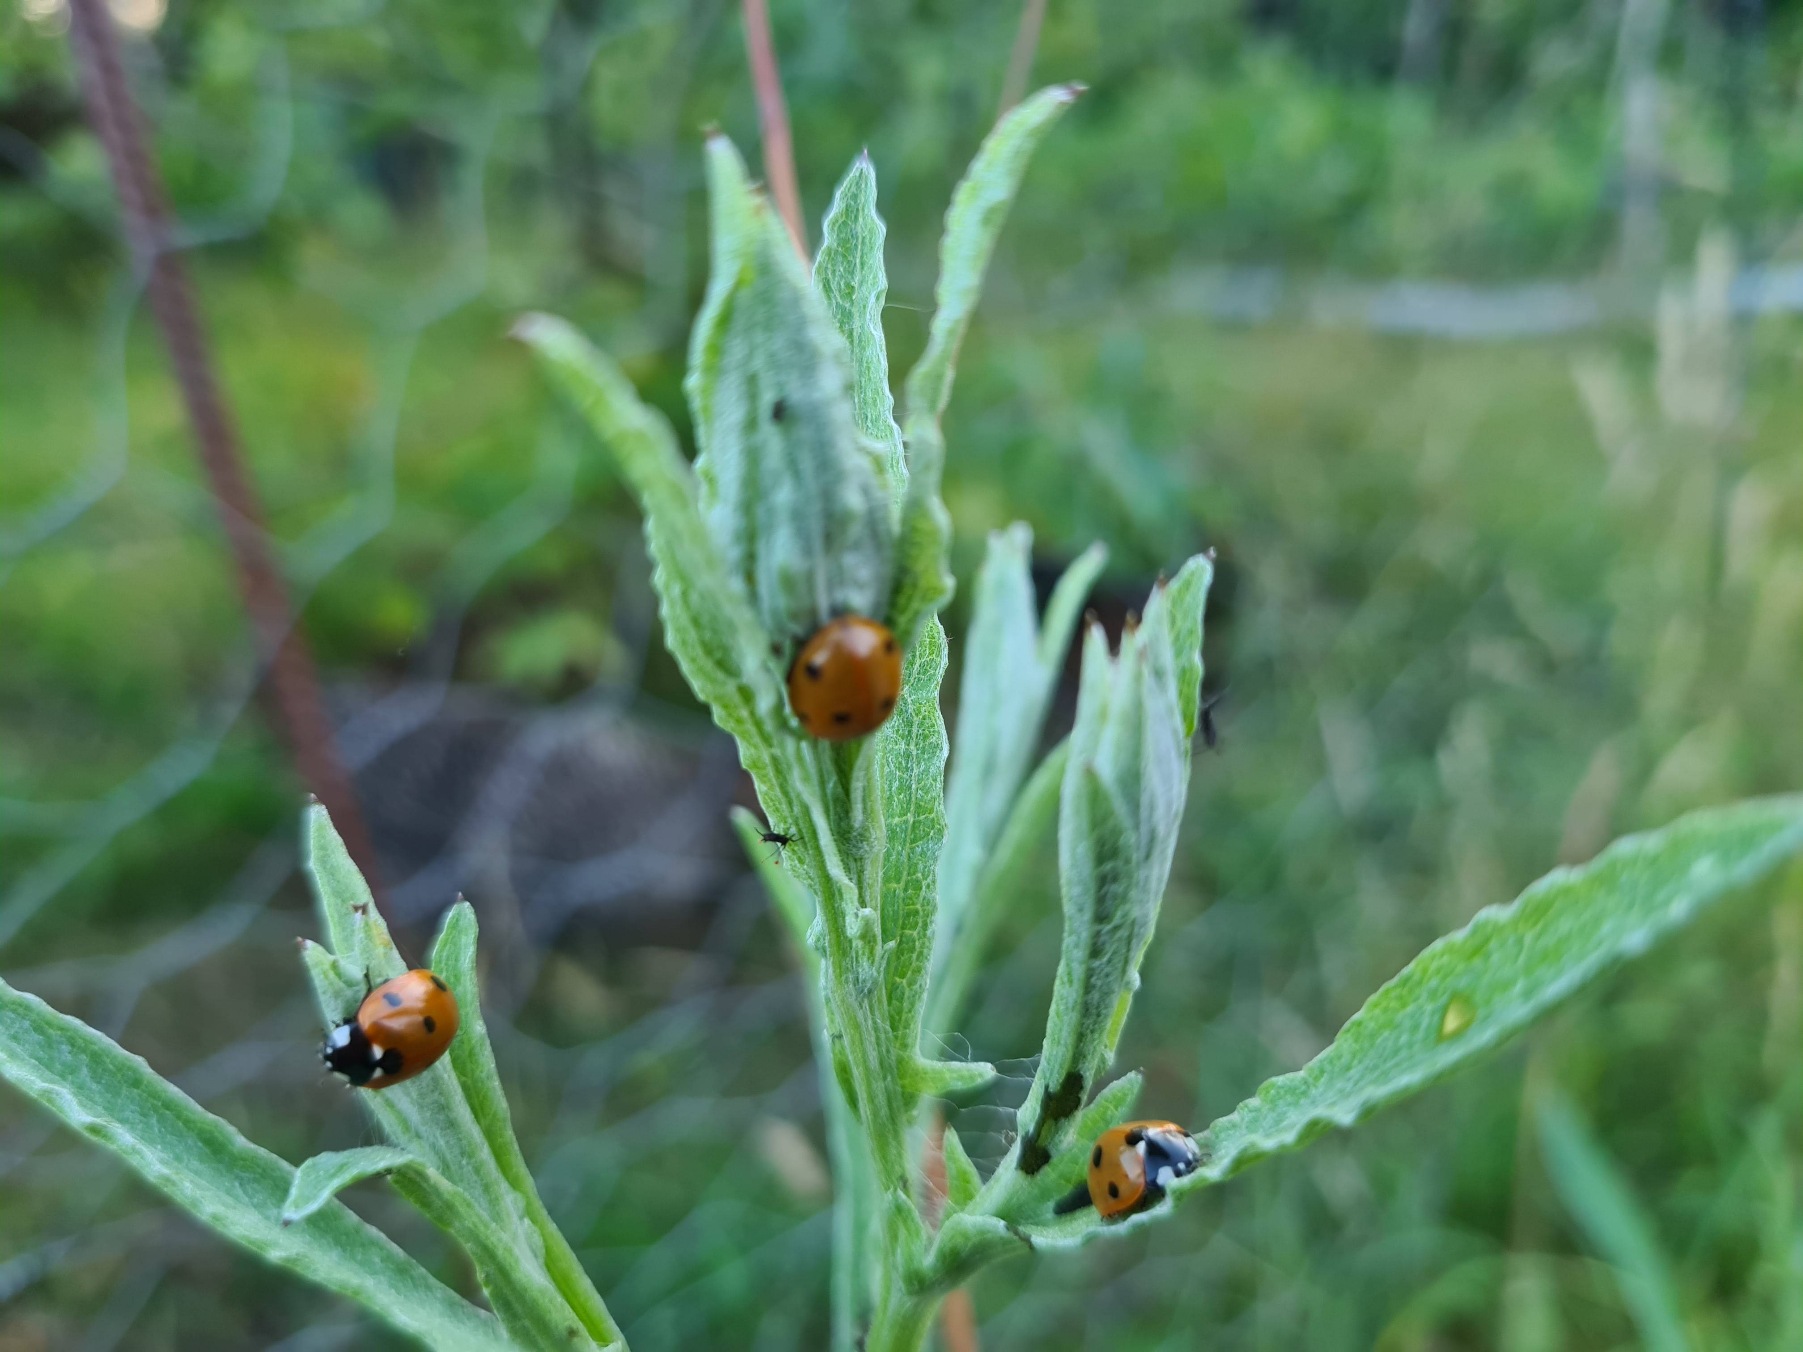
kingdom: Animalia
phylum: Arthropoda
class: Insecta
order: Coleoptera
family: Coccinellidae
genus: Coccinella
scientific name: Coccinella septempunctata
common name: Syvplettet mariehøne
